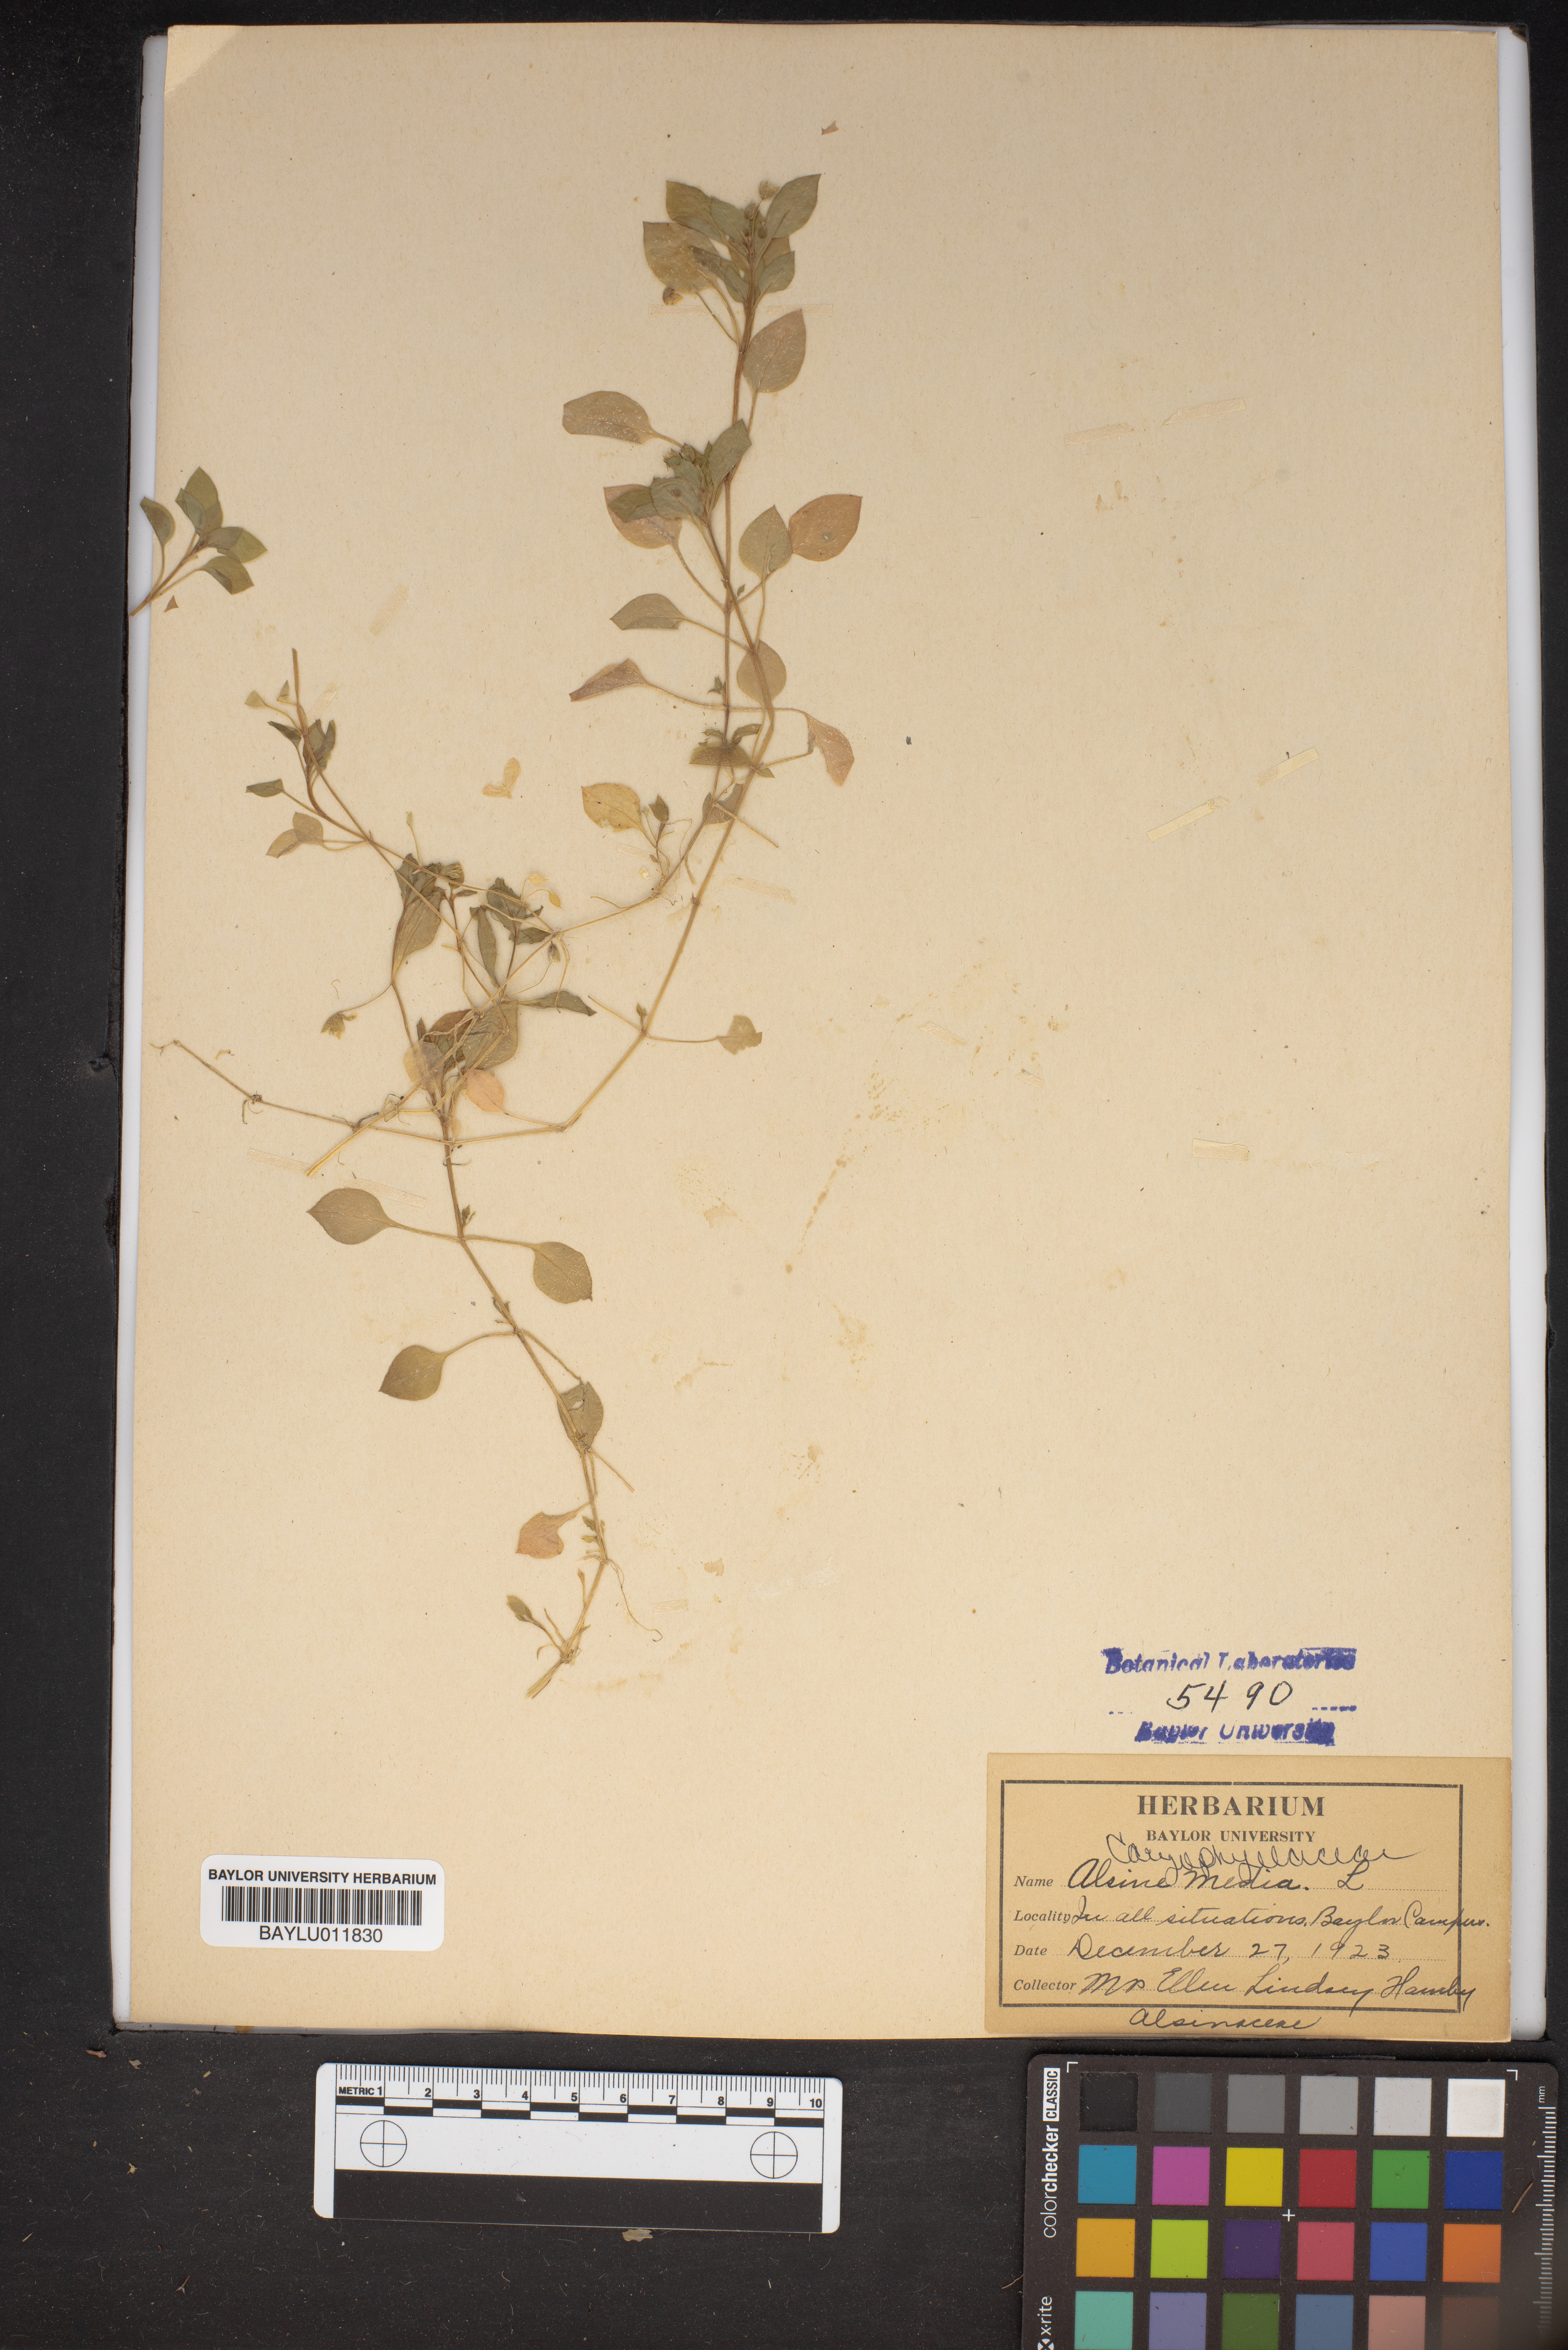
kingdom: Plantae
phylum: Tracheophyta
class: Magnoliopsida
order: Caryophyllales
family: Caryophyllaceae
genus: Stellaria
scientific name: Stellaria media
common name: Common chickweed
